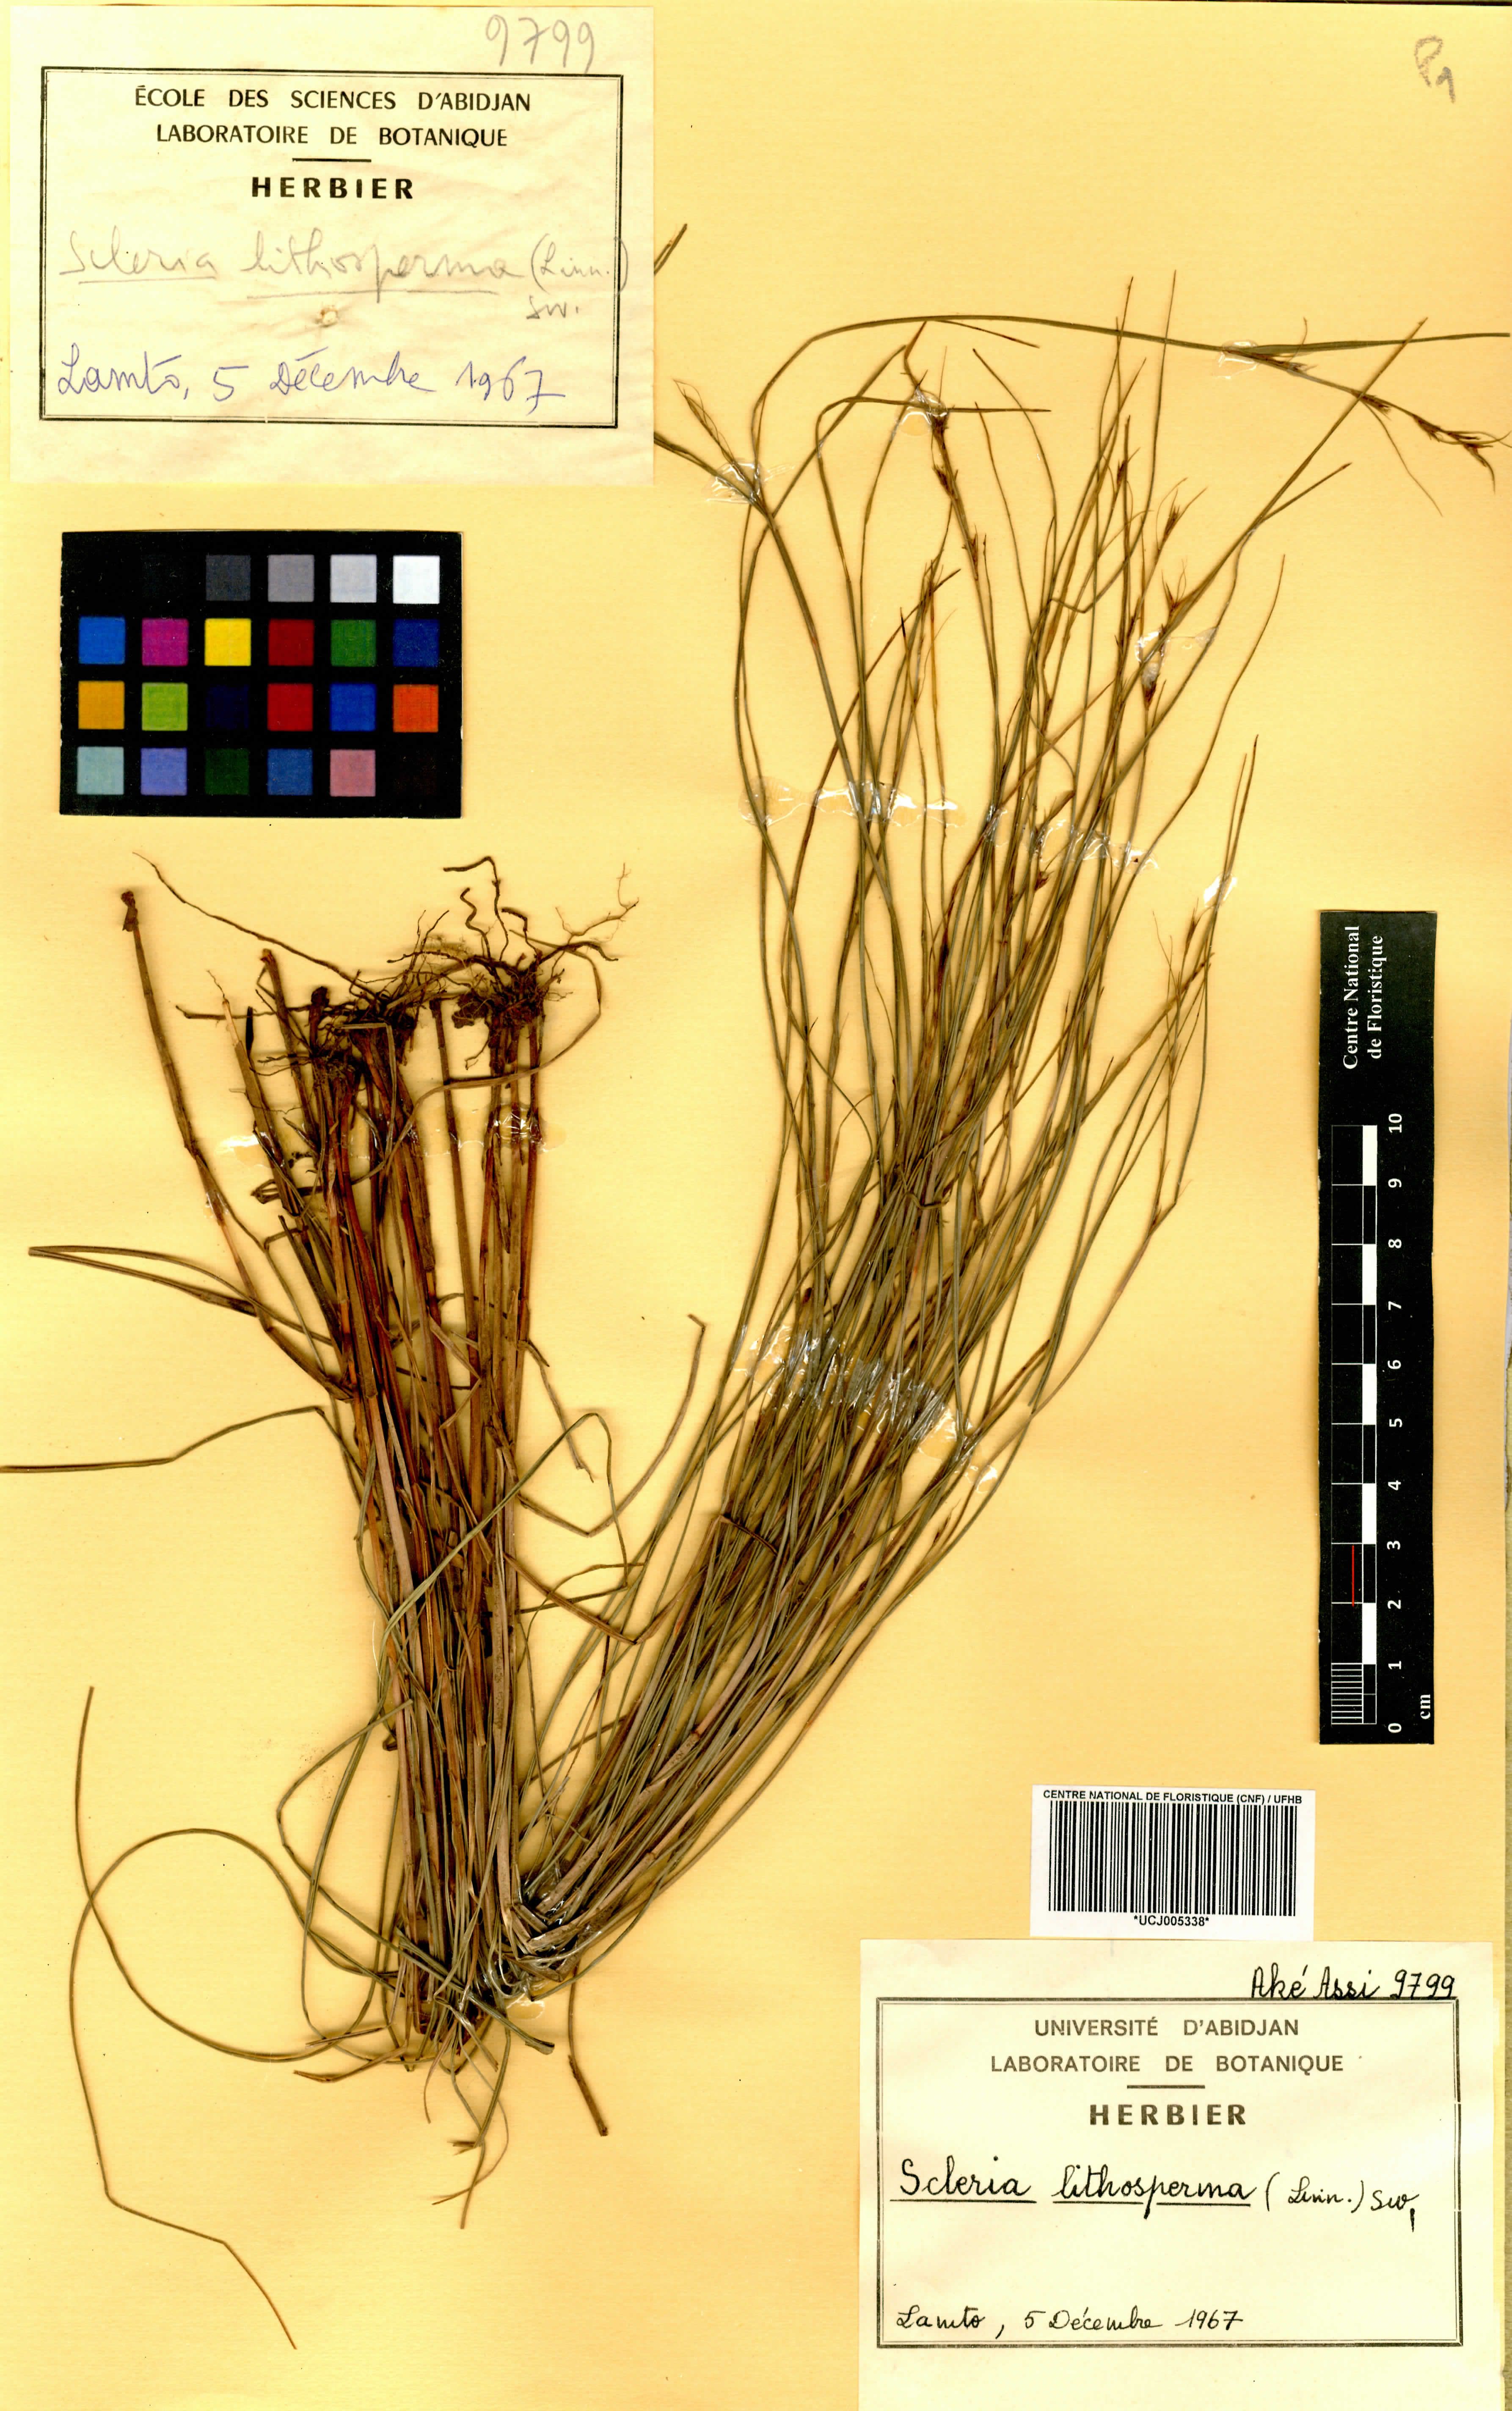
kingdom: Plantae
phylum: Tracheophyta
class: Liliopsida
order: Poales
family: Cyperaceae
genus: Scleria
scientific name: Scleria lithosperma
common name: Florida keys nut-rush
